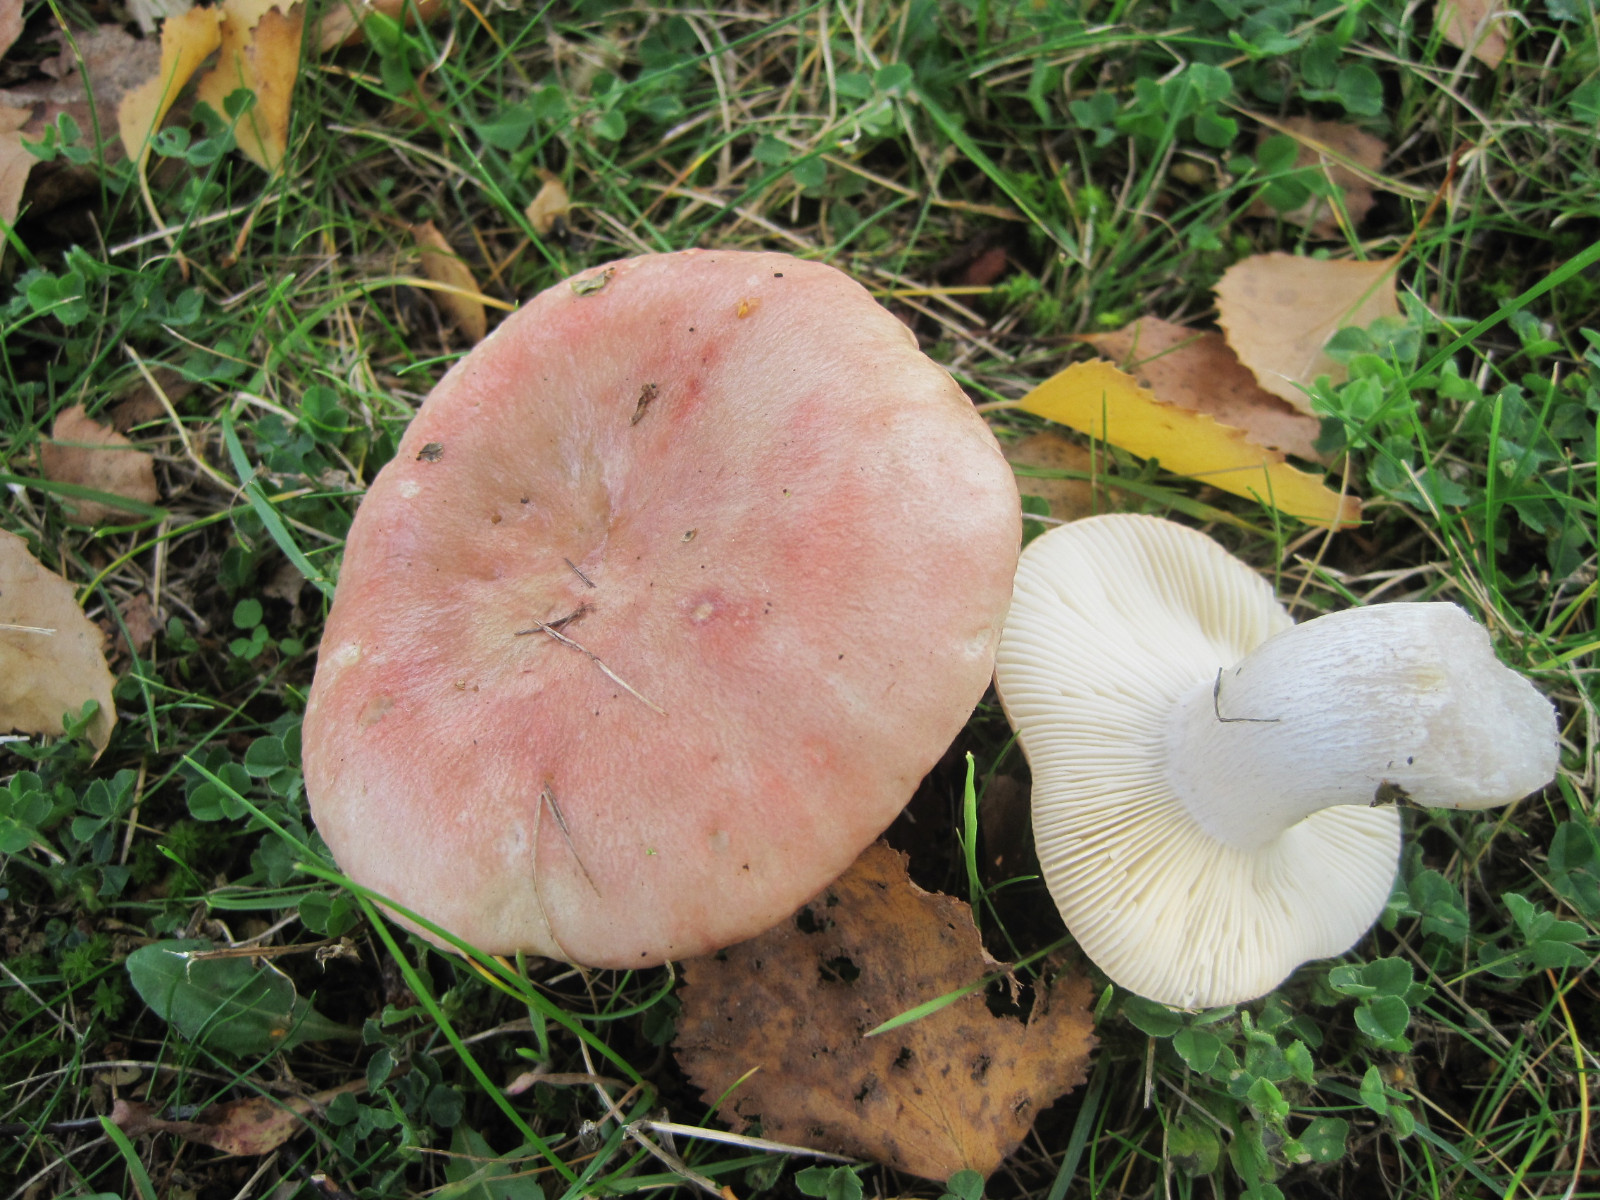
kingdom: Fungi
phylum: Basidiomycota
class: Agaricomycetes
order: Russulales
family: Russulaceae
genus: Russula
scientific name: Russula depallens
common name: falmende skørhat
